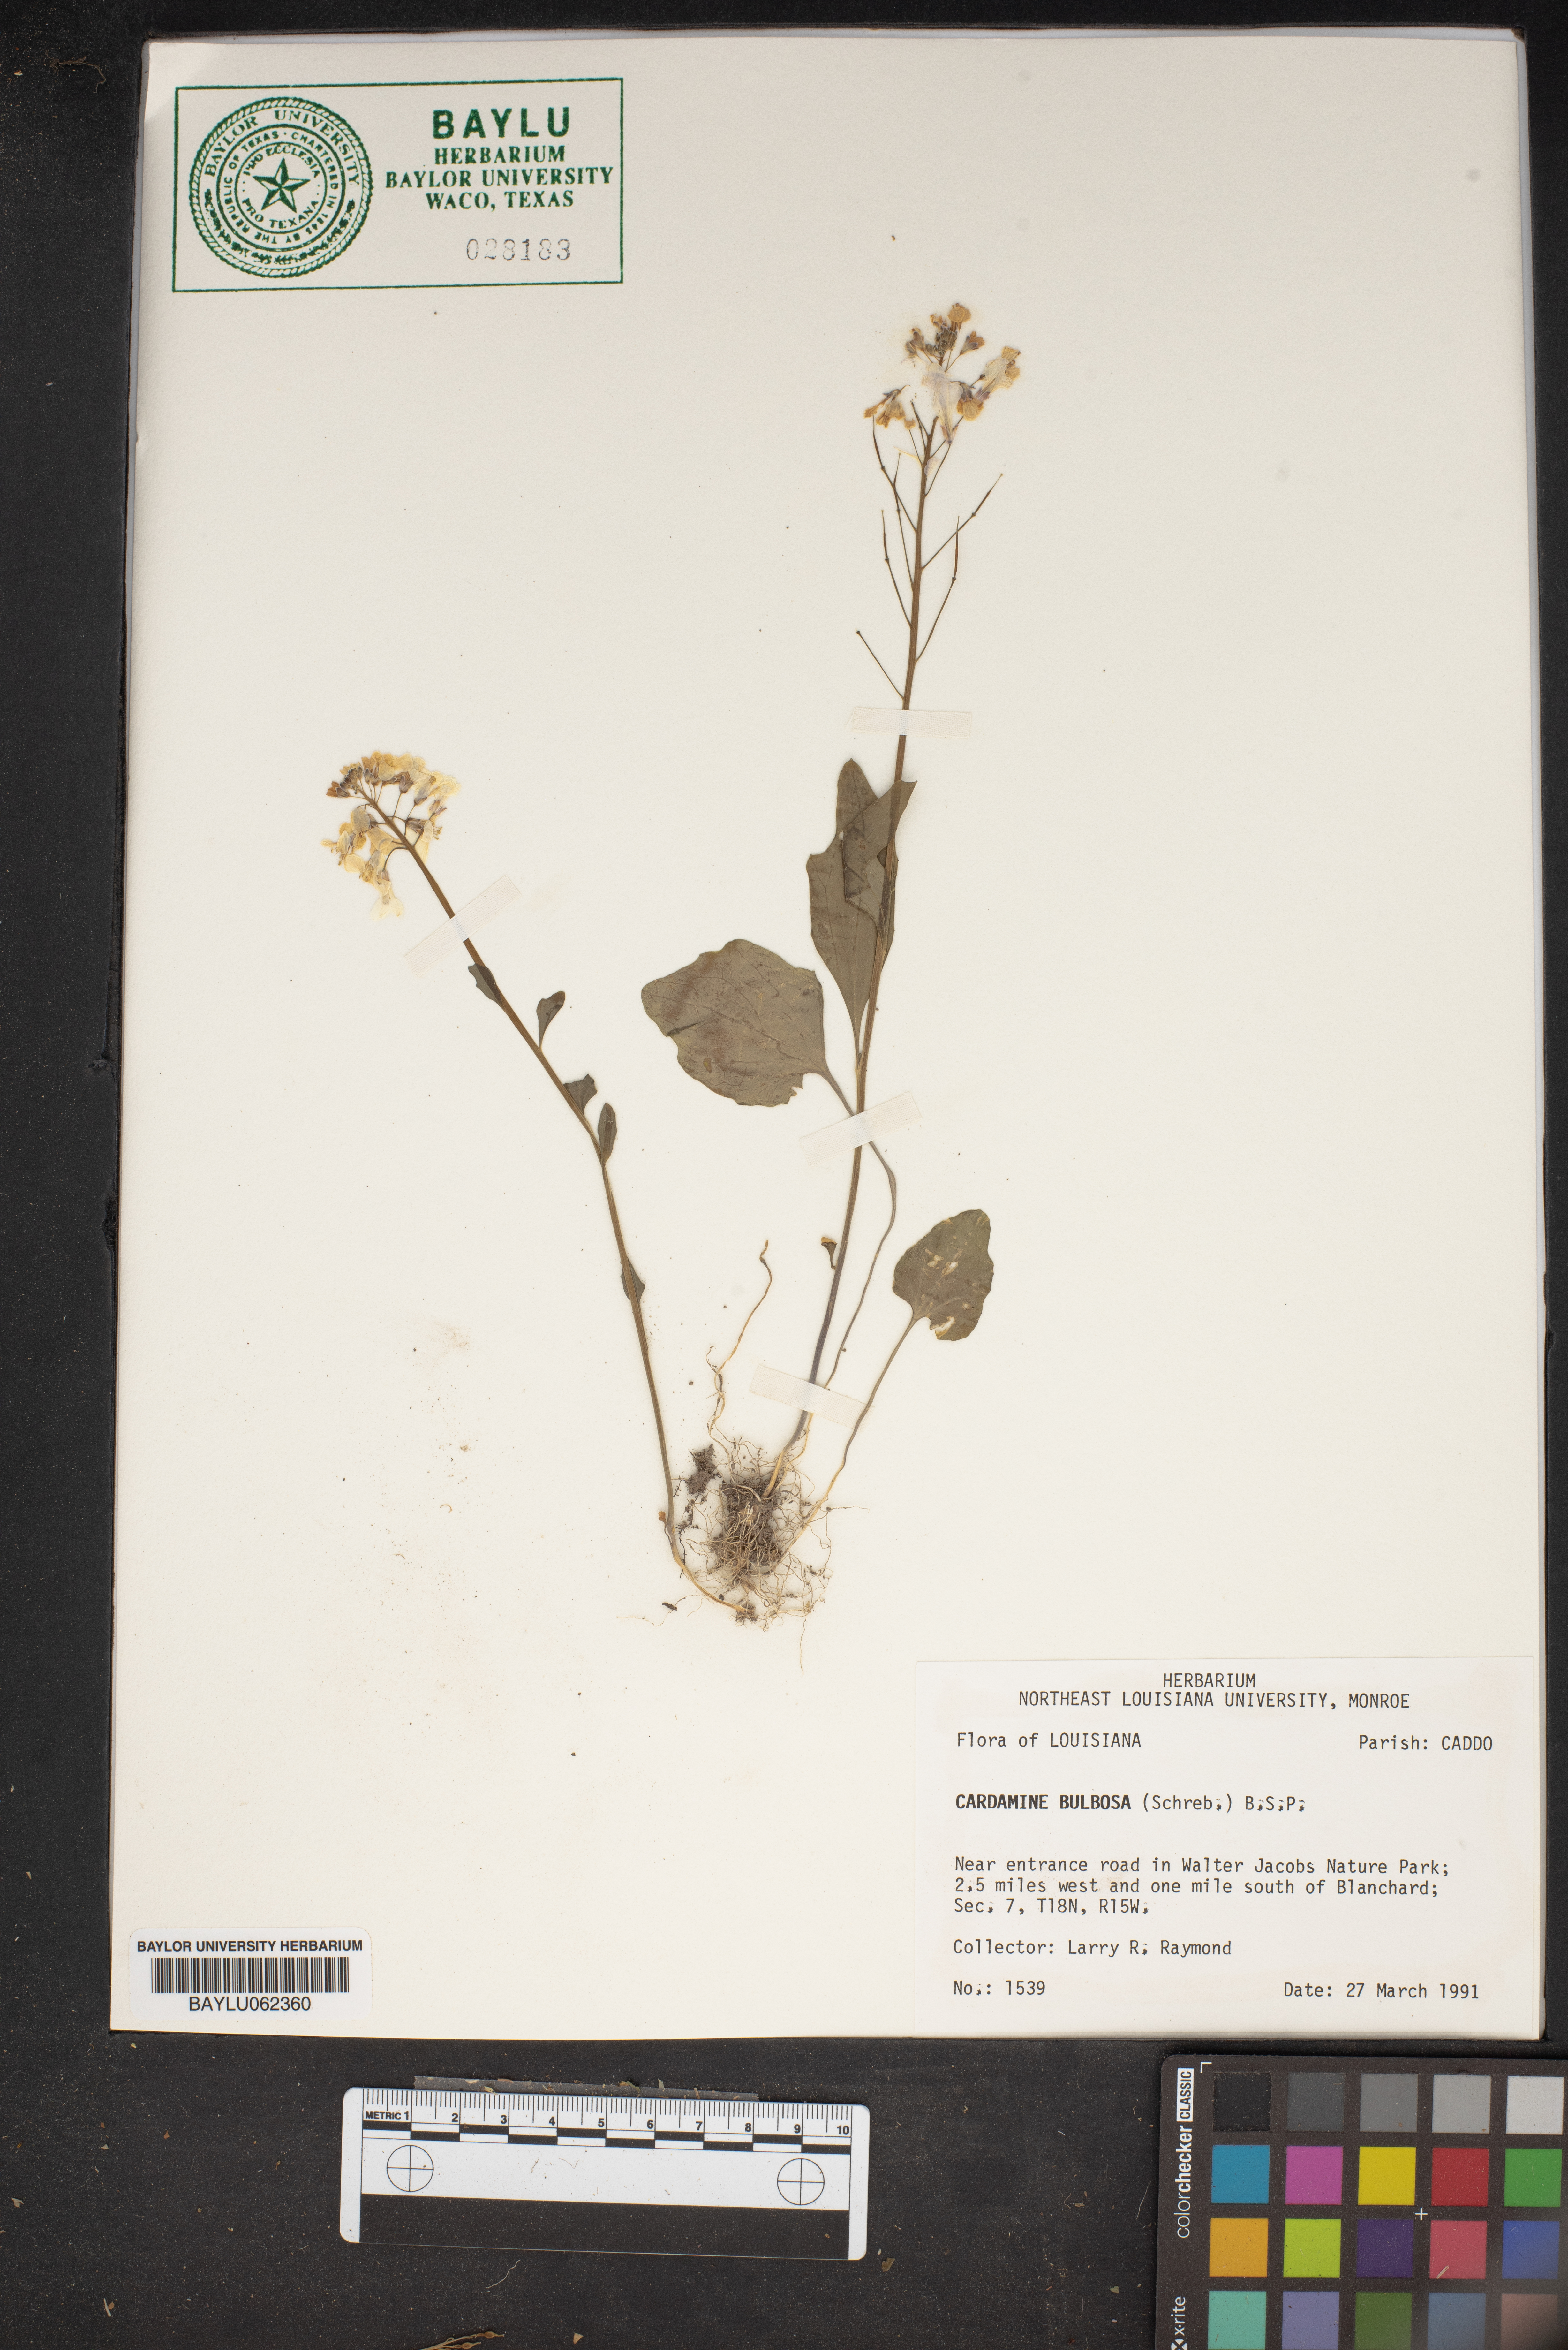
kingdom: Plantae
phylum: Tracheophyta
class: Magnoliopsida
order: Brassicales
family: Brassicaceae
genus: Cardamine
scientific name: Cardamine bulbosa
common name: Spring cress
